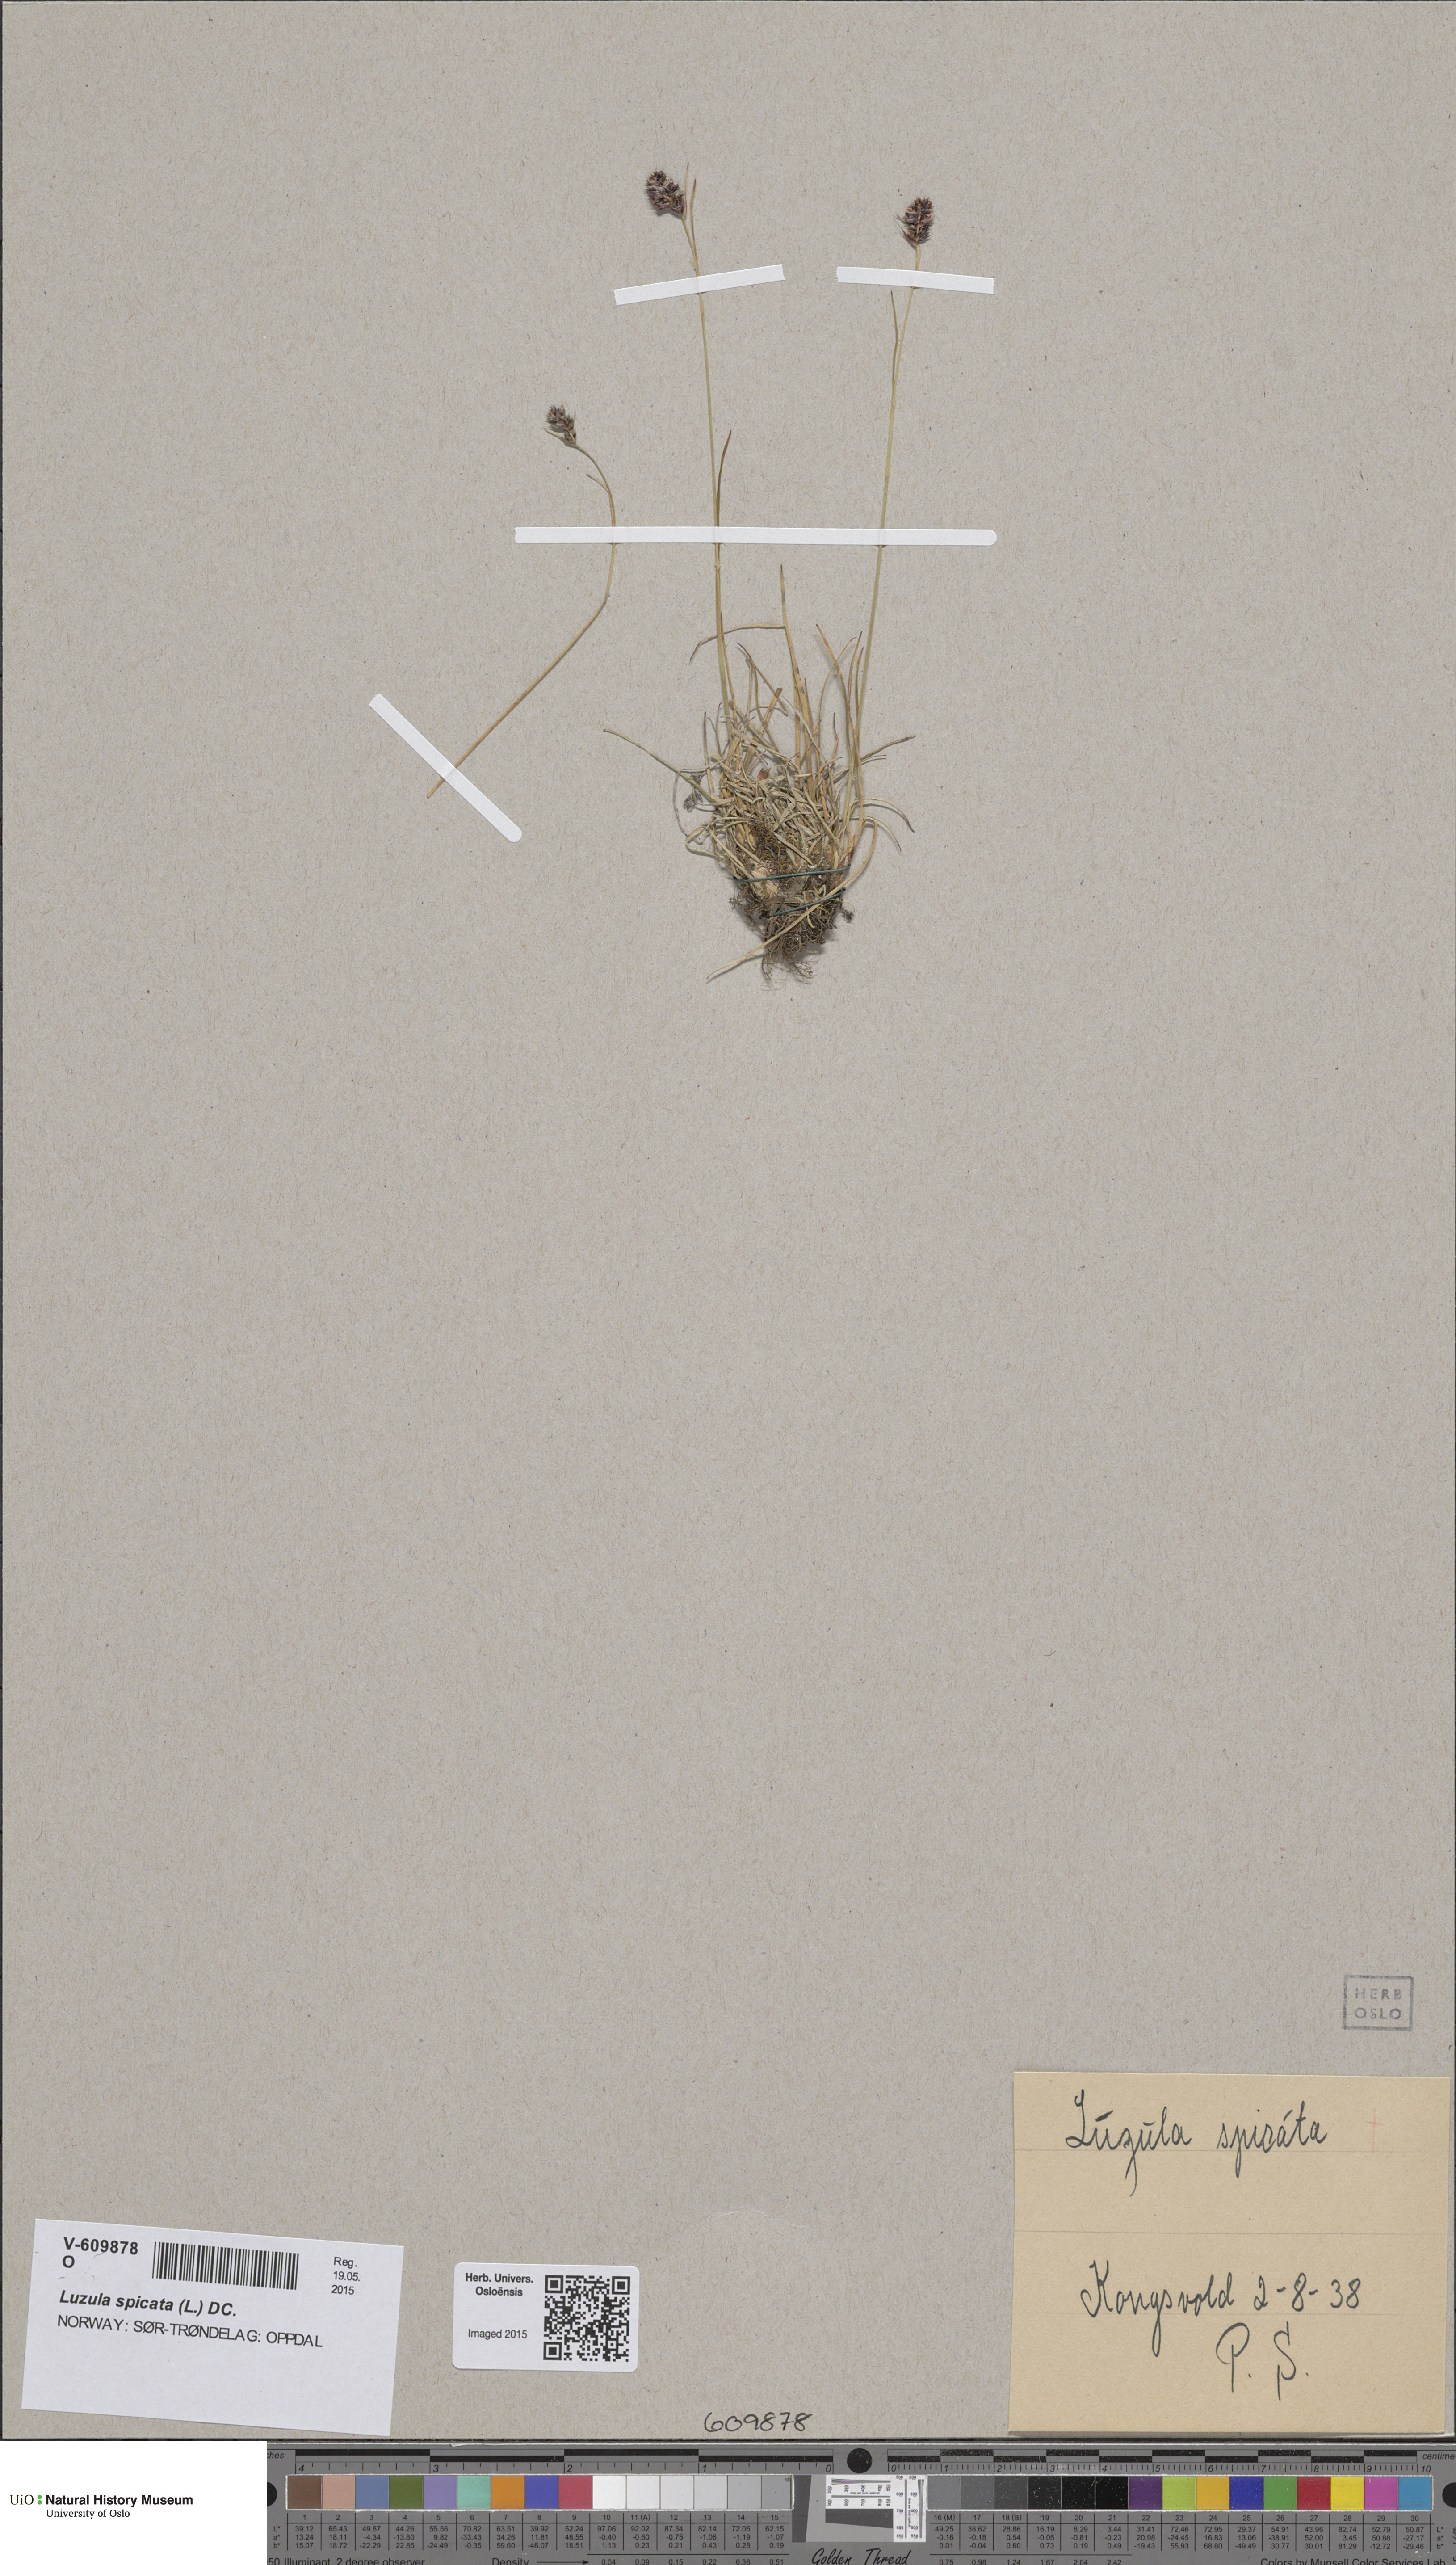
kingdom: Plantae
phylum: Tracheophyta
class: Liliopsida
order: Poales
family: Juncaceae
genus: Luzula
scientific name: Luzula spicata
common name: Spiked wood-rush
